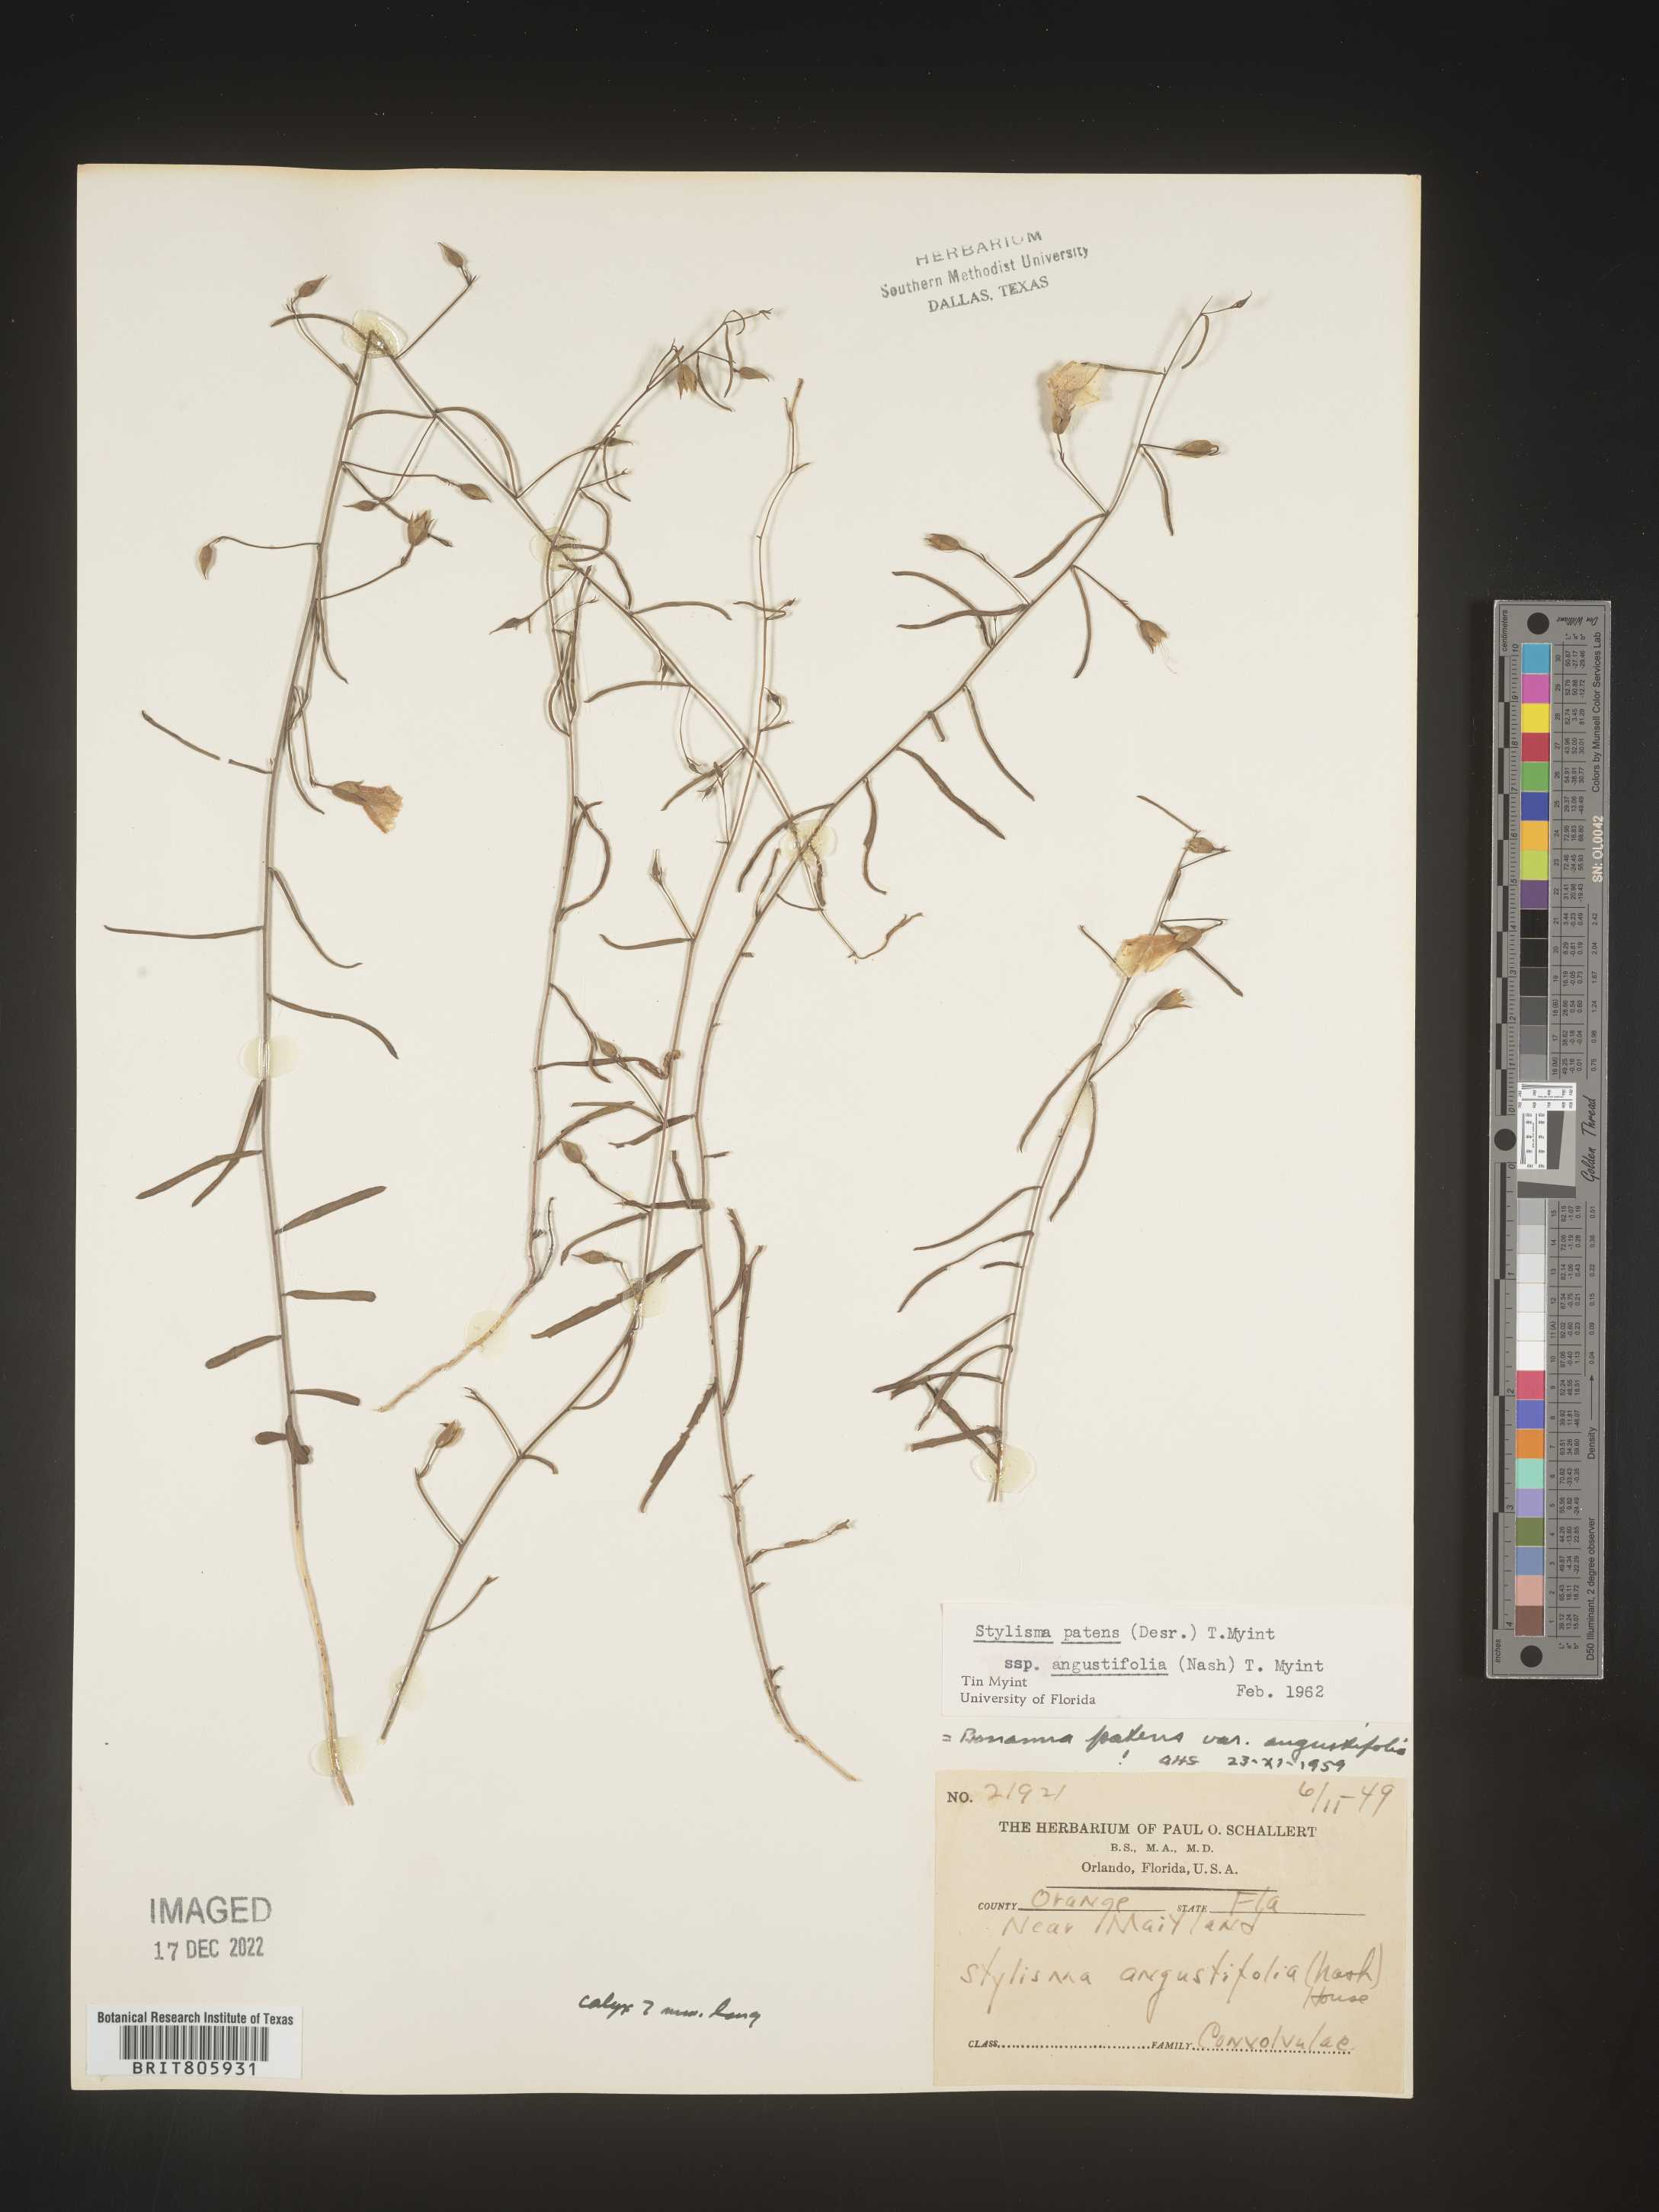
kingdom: Plantae
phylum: Tracheophyta
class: Magnoliopsida
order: Solanales
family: Convolvulaceae
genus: Stylisma
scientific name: Stylisma
